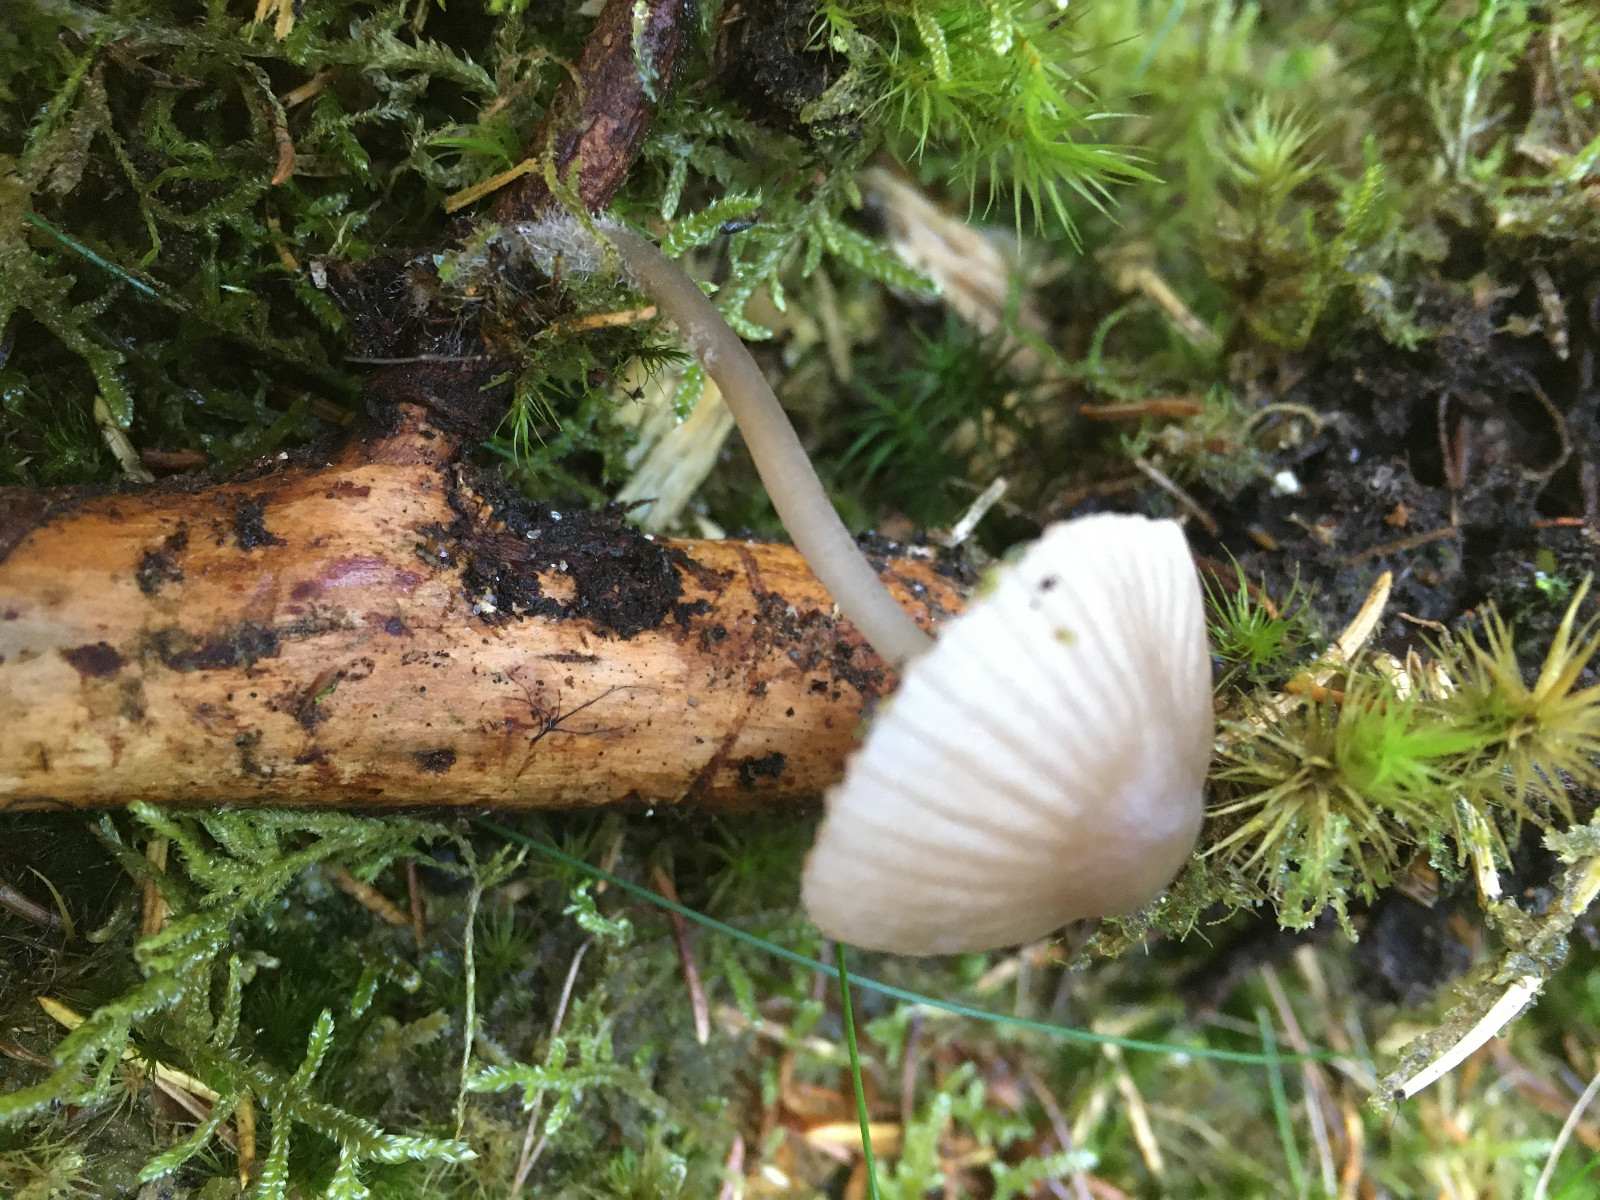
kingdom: Fungi
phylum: Basidiomycota
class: Agaricomycetes
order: Agaricales
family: Mycenaceae
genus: Mycena
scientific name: Mycena rubromarginata
